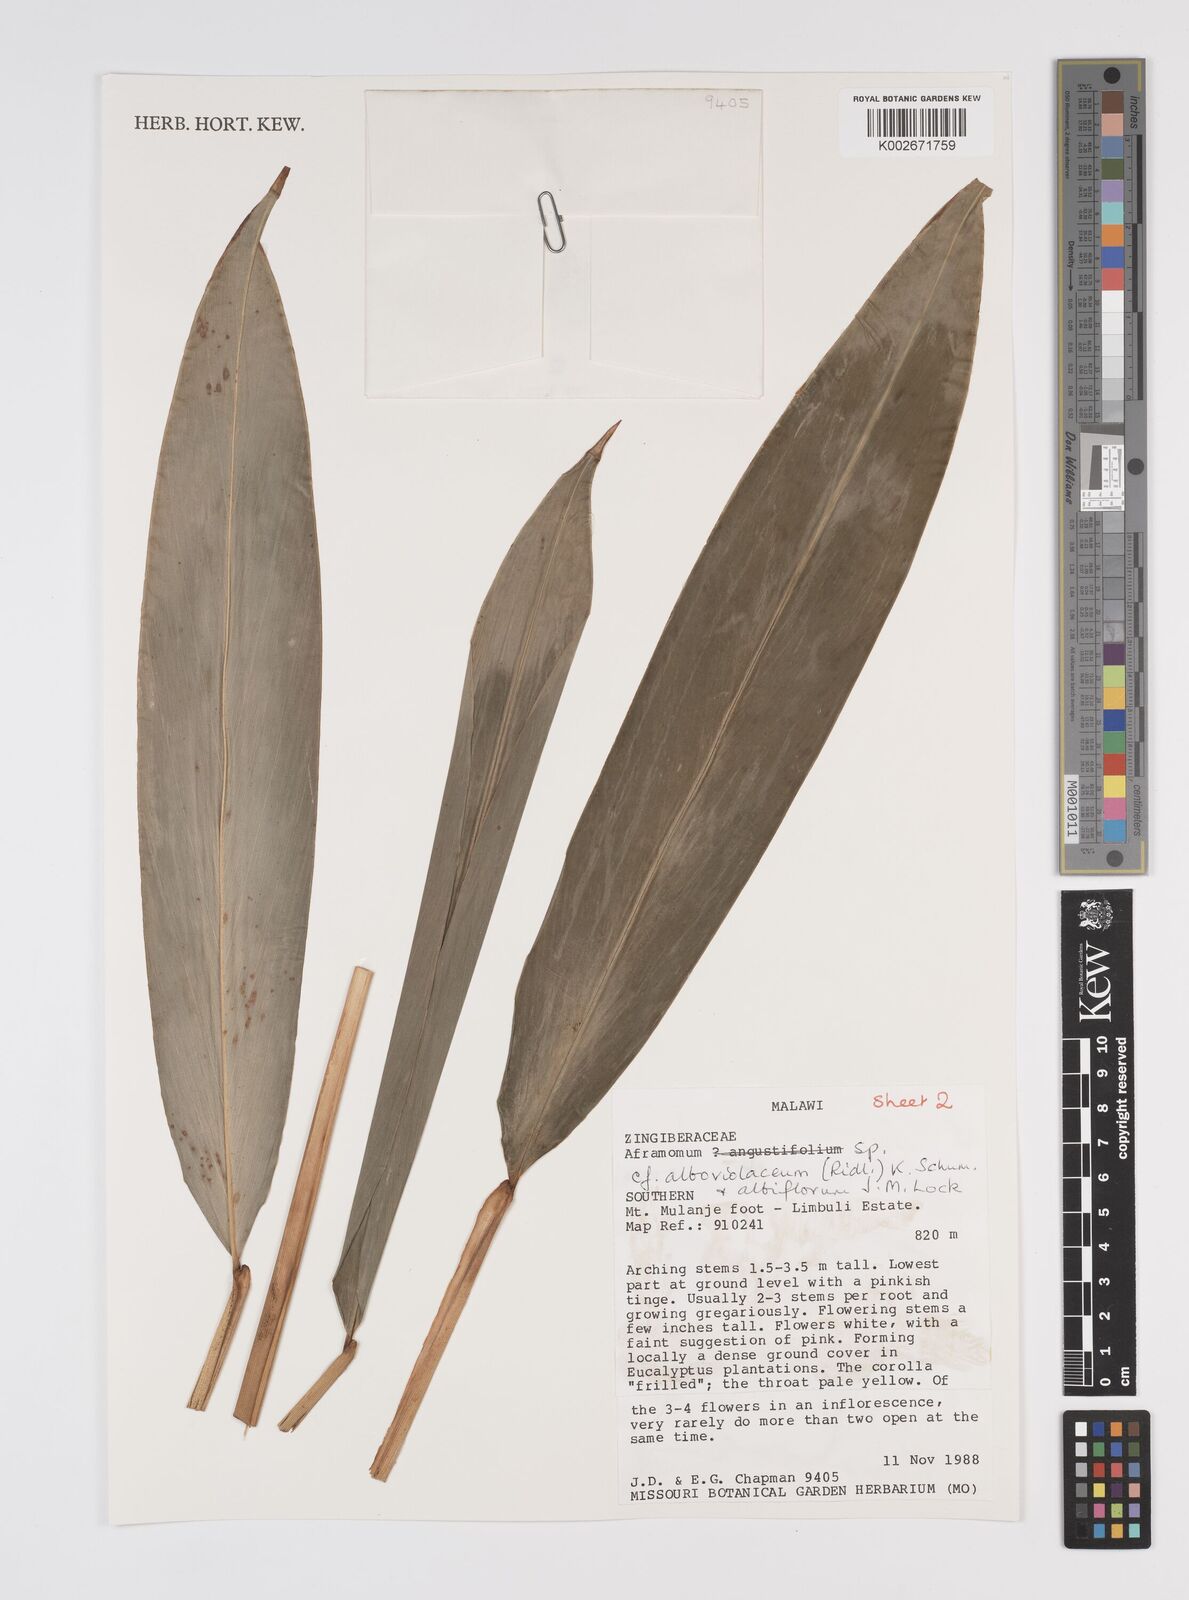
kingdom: Plantae
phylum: Tracheophyta
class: Liliopsida
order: Zingiberales
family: Zingiberaceae
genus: Aframomum
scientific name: Aframomum albiflorum
